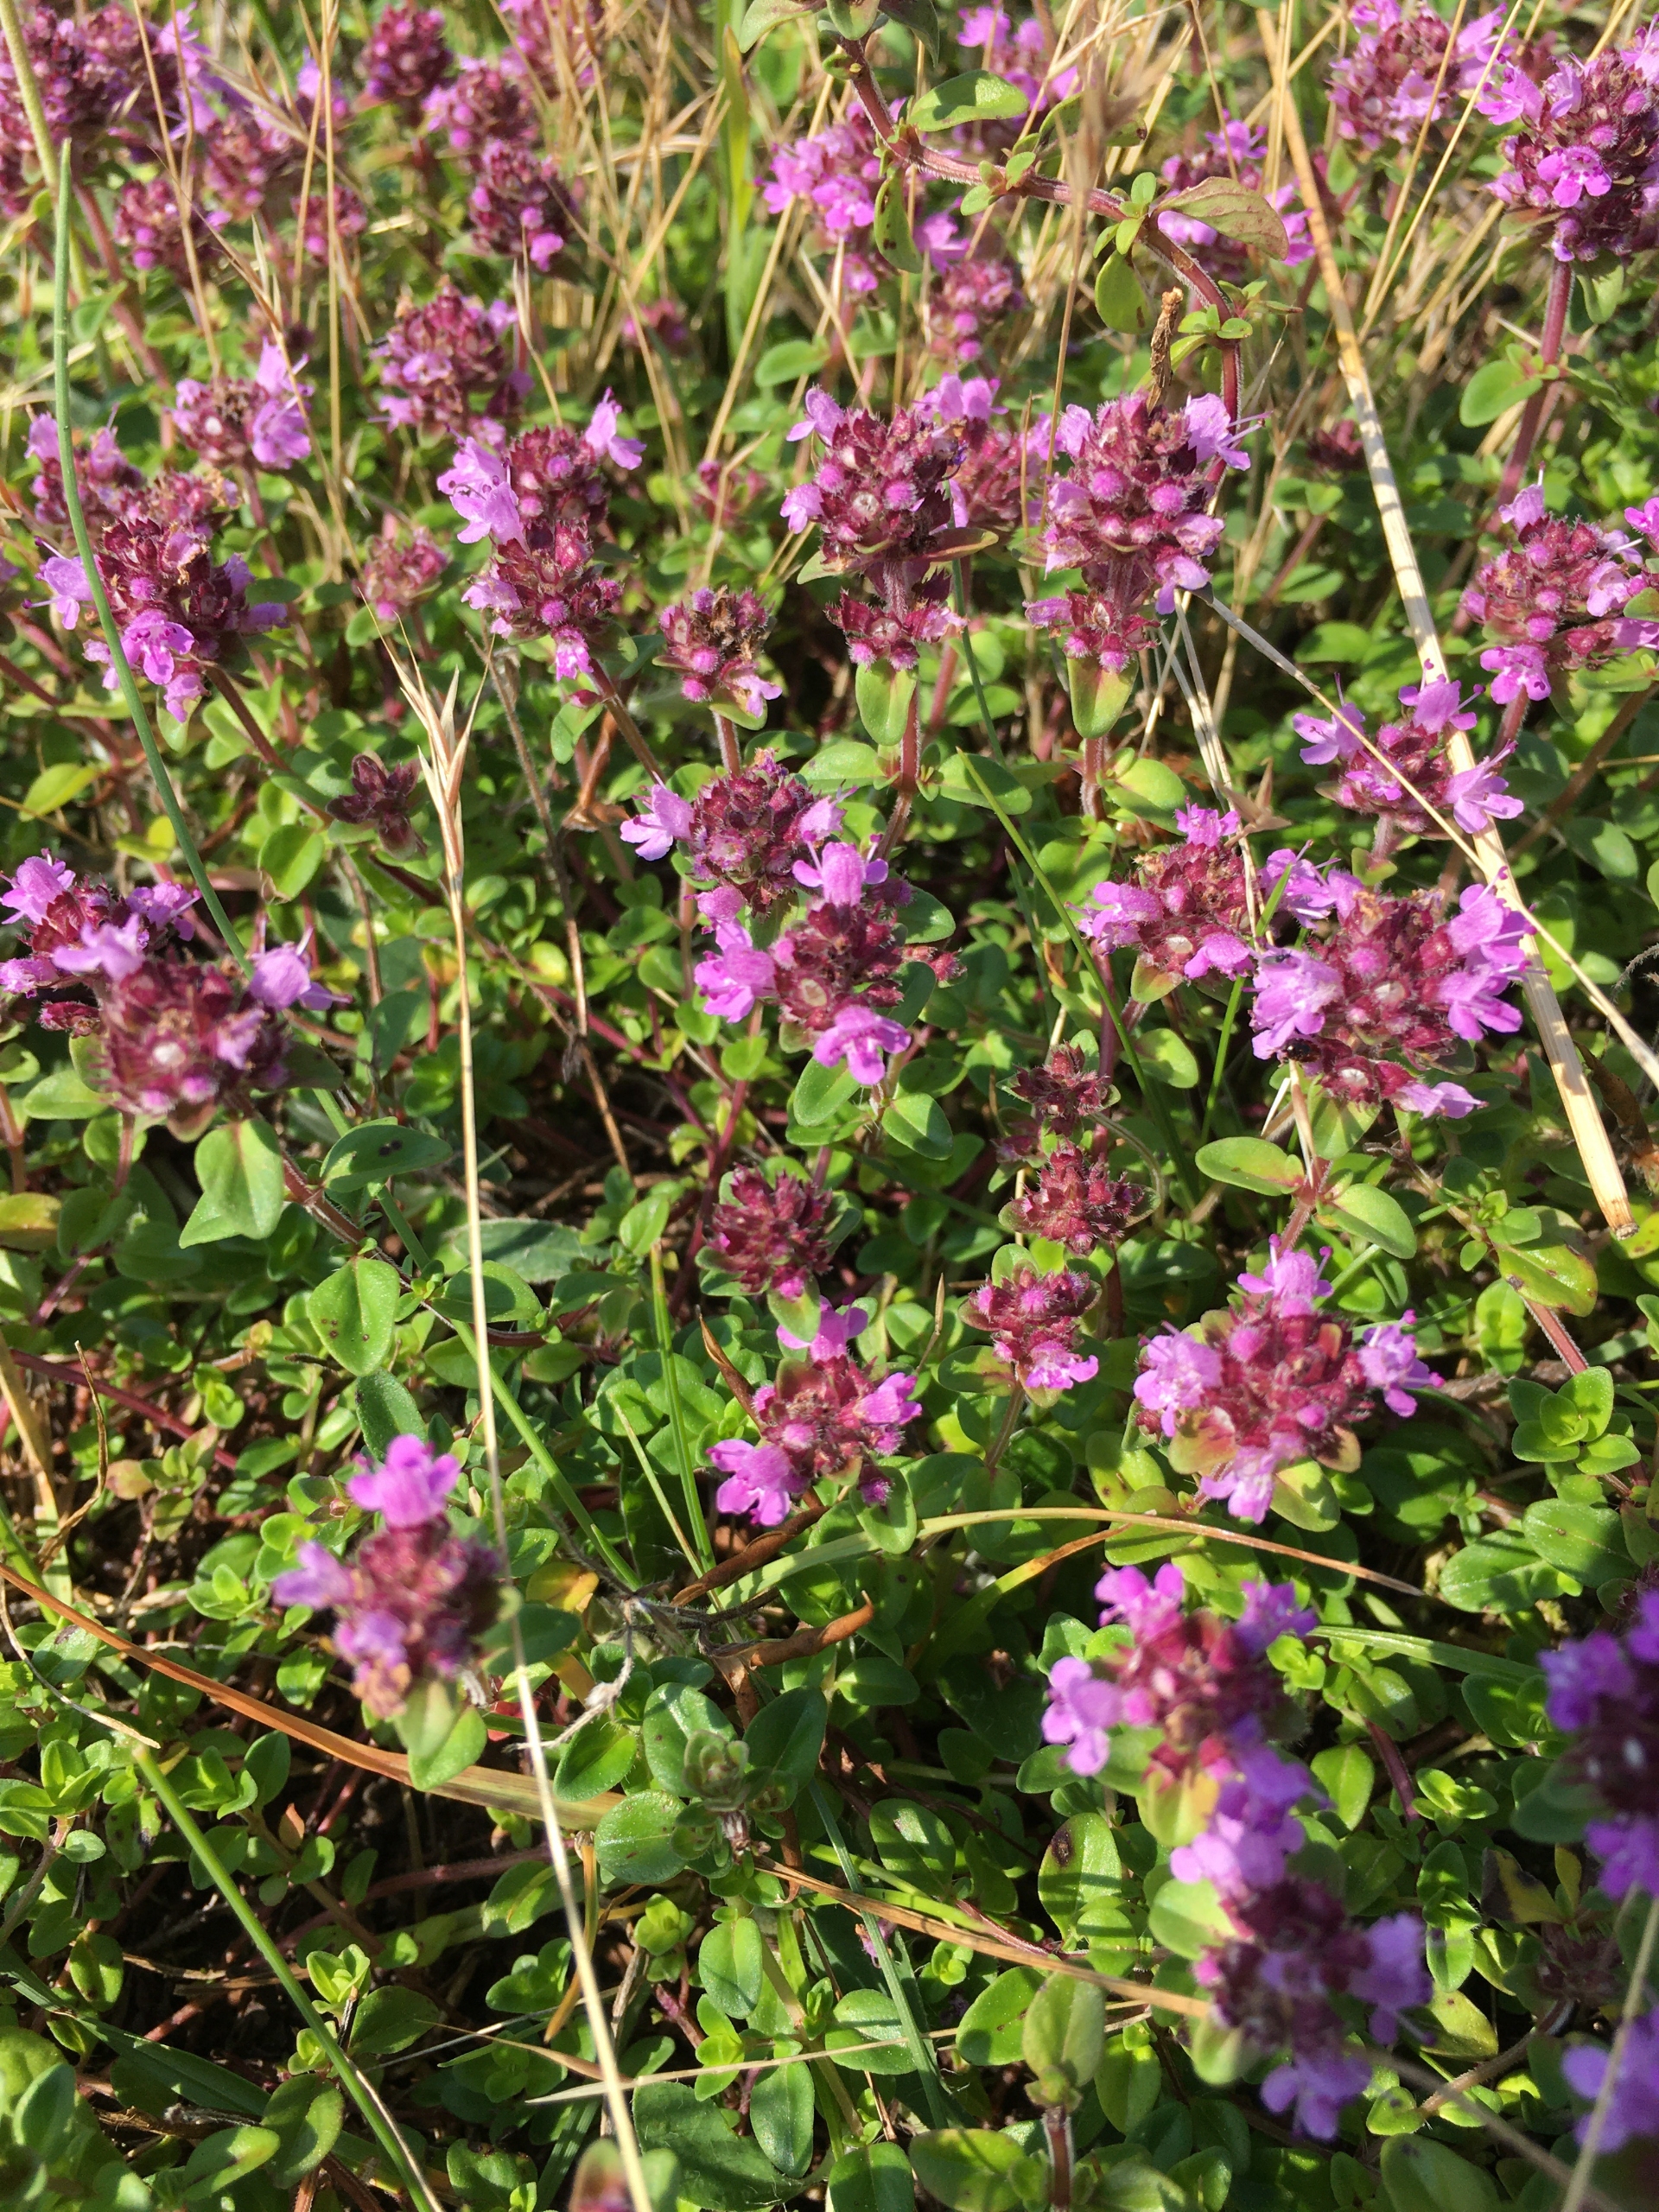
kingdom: Plantae
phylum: Tracheophyta
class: Magnoliopsida
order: Lamiales
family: Lamiaceae
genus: Thymus
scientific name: Thymus pulegioides
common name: Bredbladet timian
